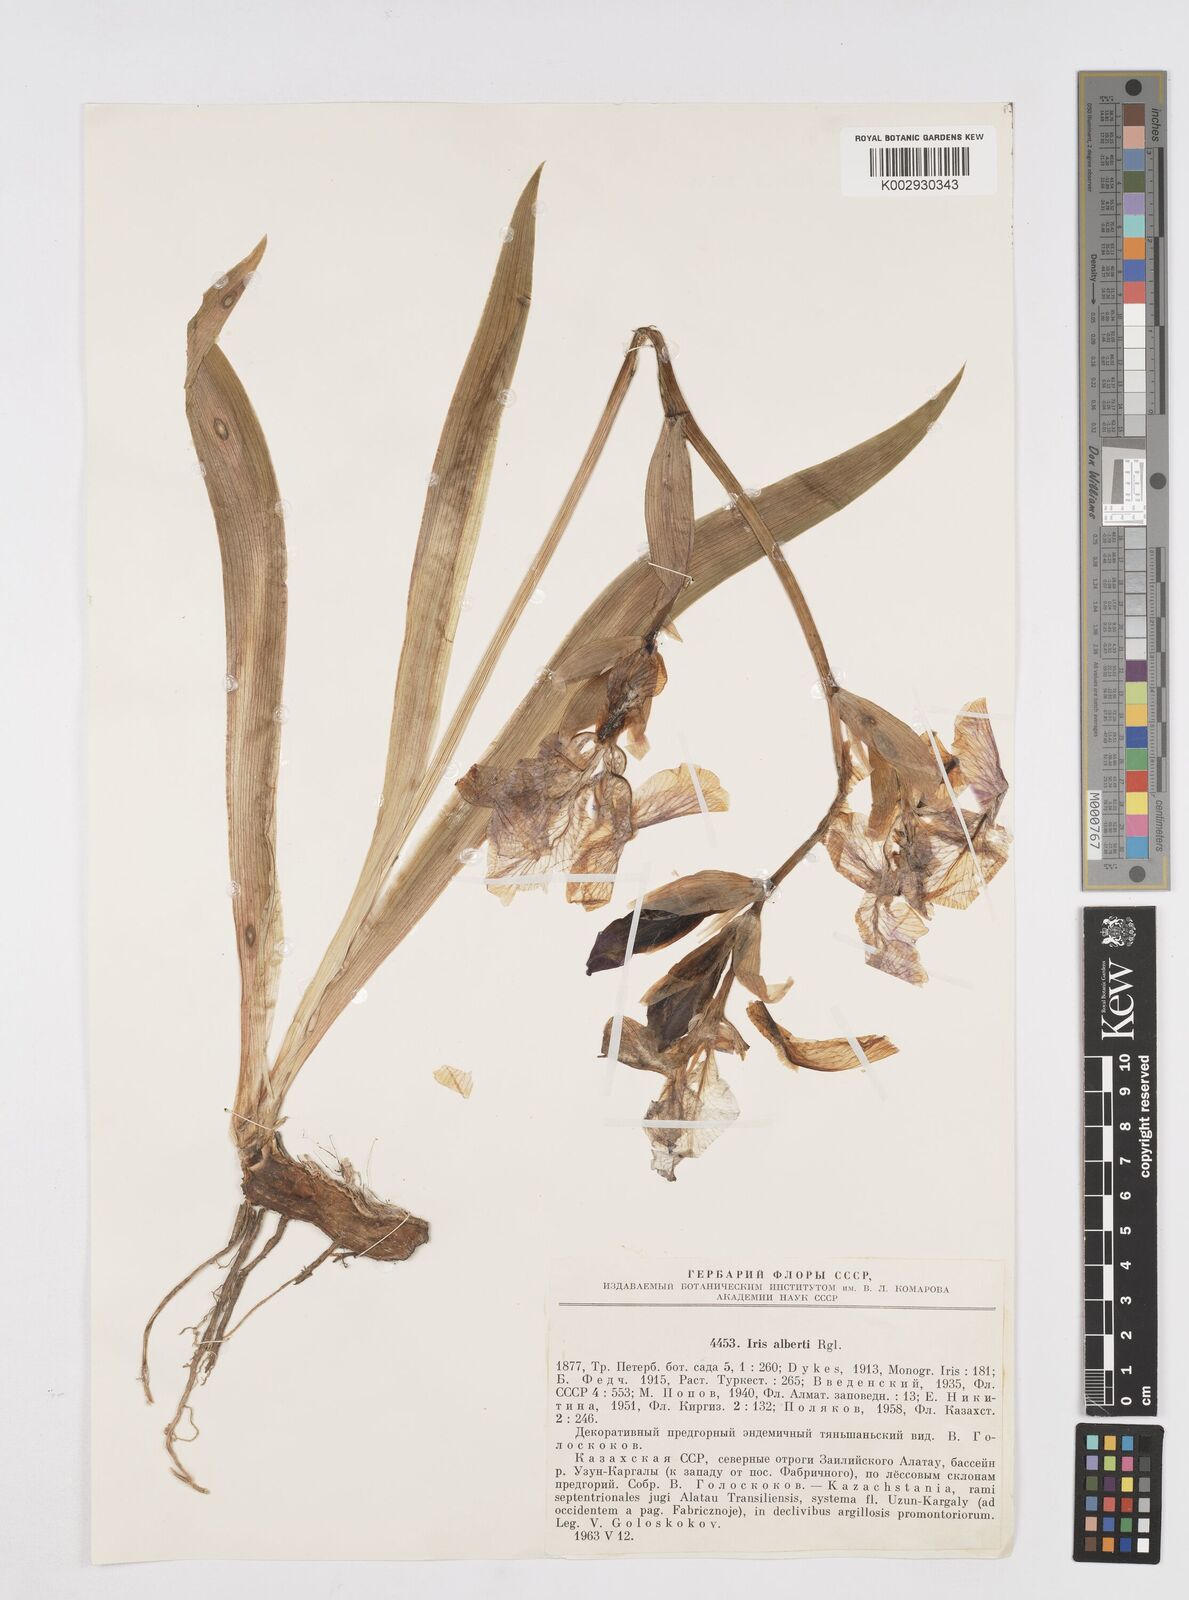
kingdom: Plantae
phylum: Tracheophyta
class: Liliopsida
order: Asparagales
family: Iridaceae
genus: Iris
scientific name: Iris alberti
